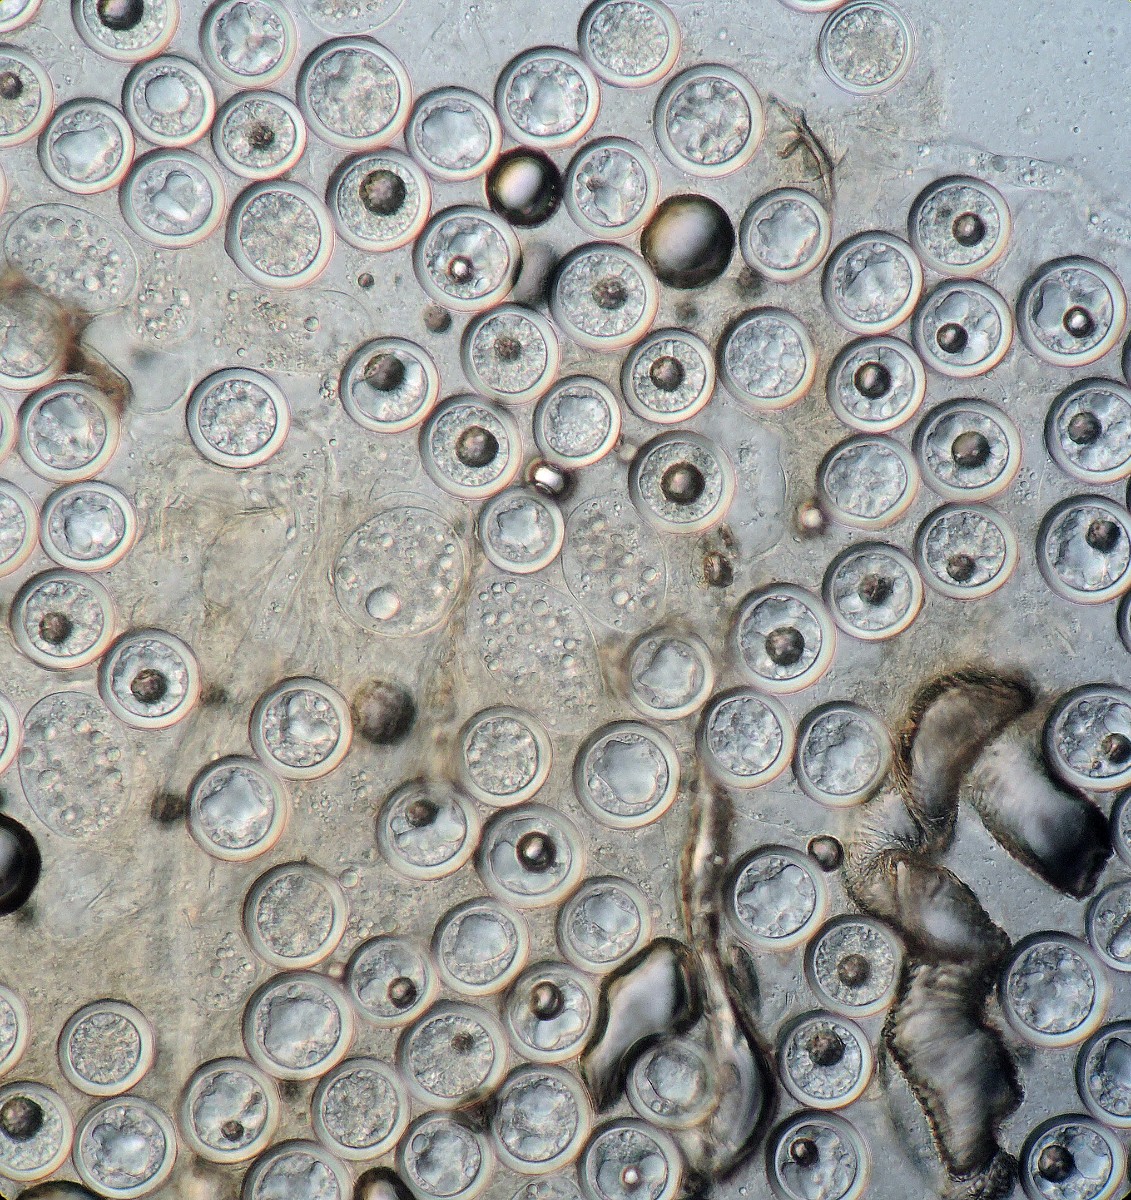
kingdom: Fungi
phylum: Entomophthoromycota
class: Entomophthoromycetes
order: Entomophthorales
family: Entomophthoraceae
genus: Entomophaga
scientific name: Entomophaga grylli
